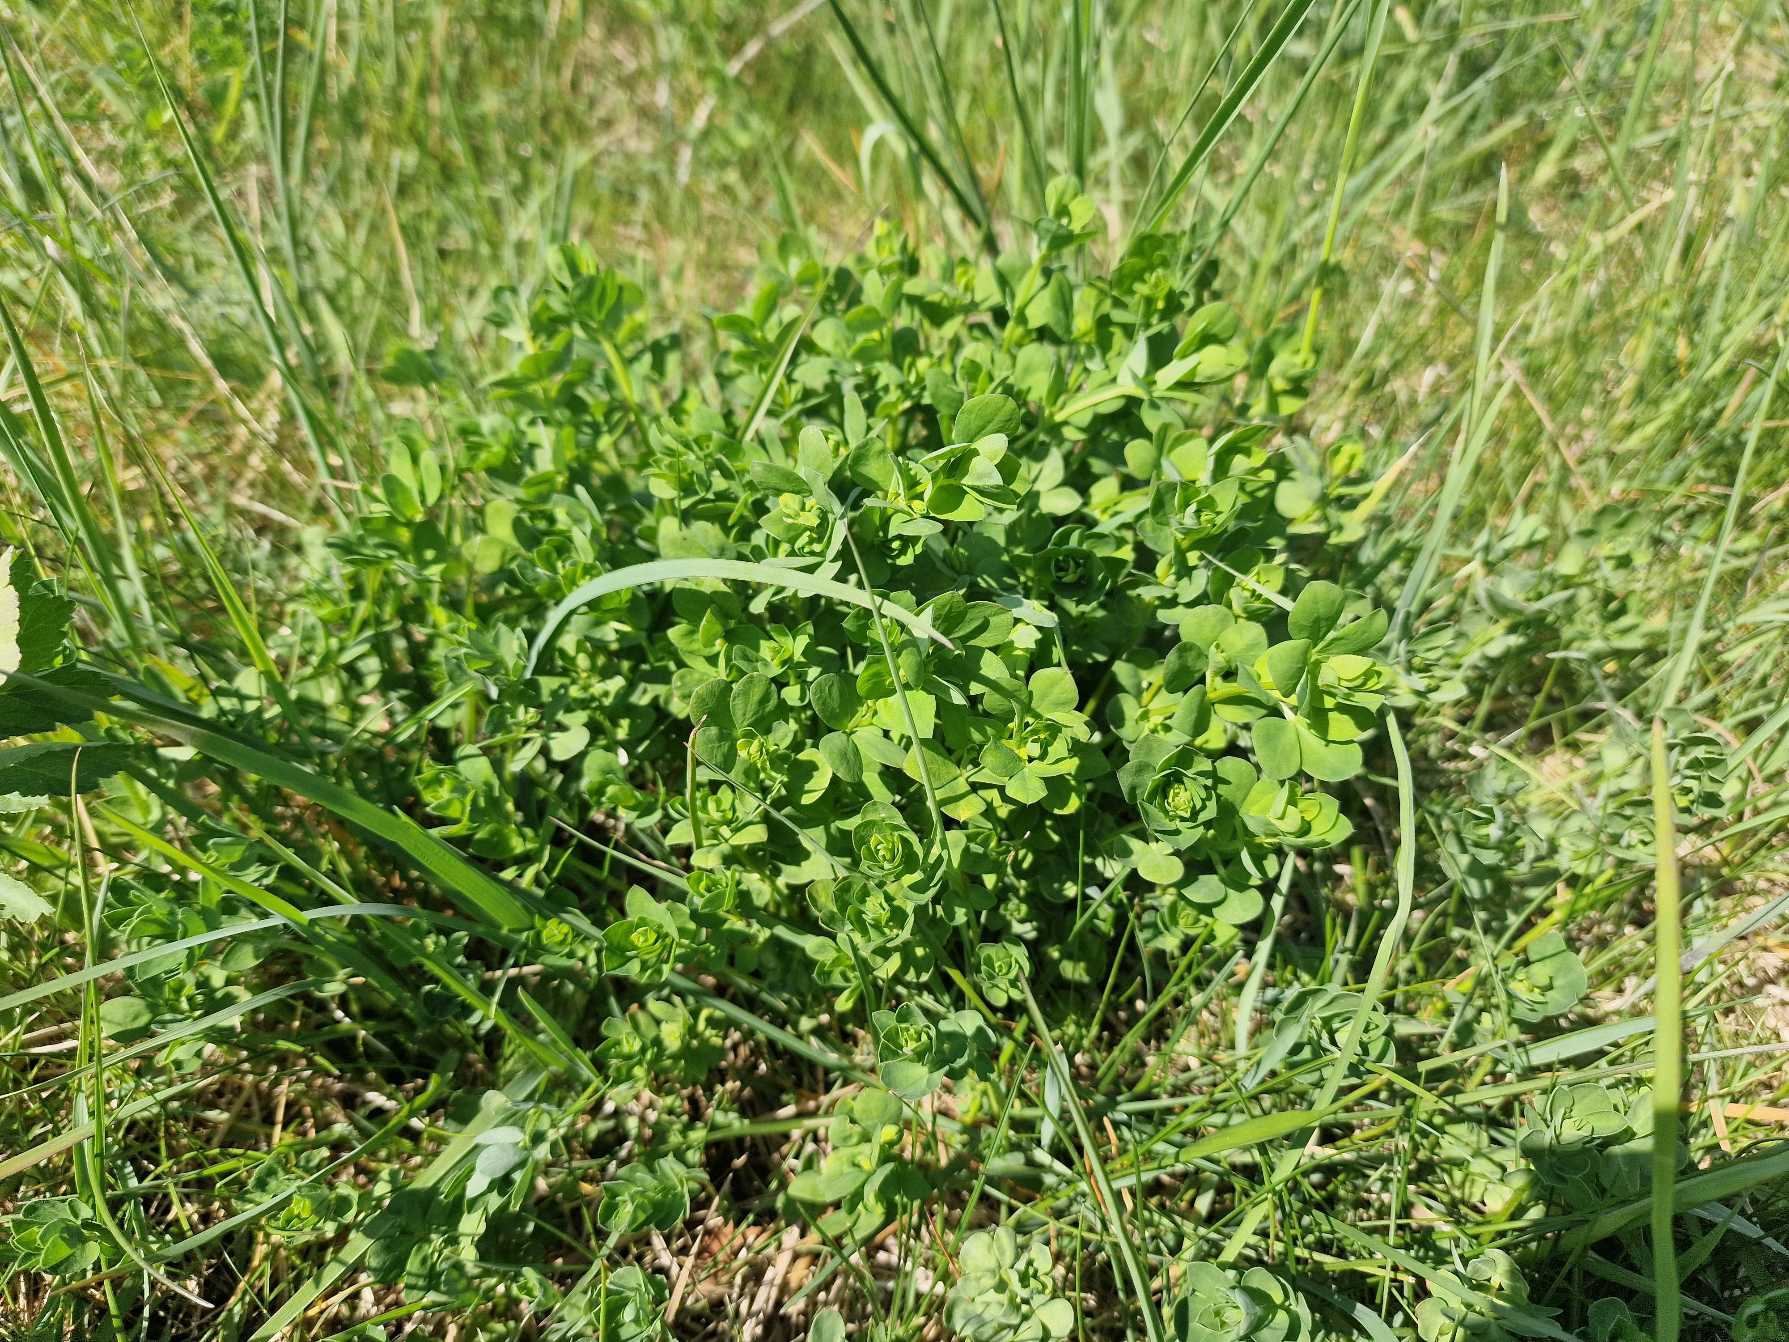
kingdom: Plantae
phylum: Tracheophyta
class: Magnoliopsida
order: Fabales
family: Fabaceae
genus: Lotus
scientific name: Lotus corniculatus
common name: Almindelig kællingetand
